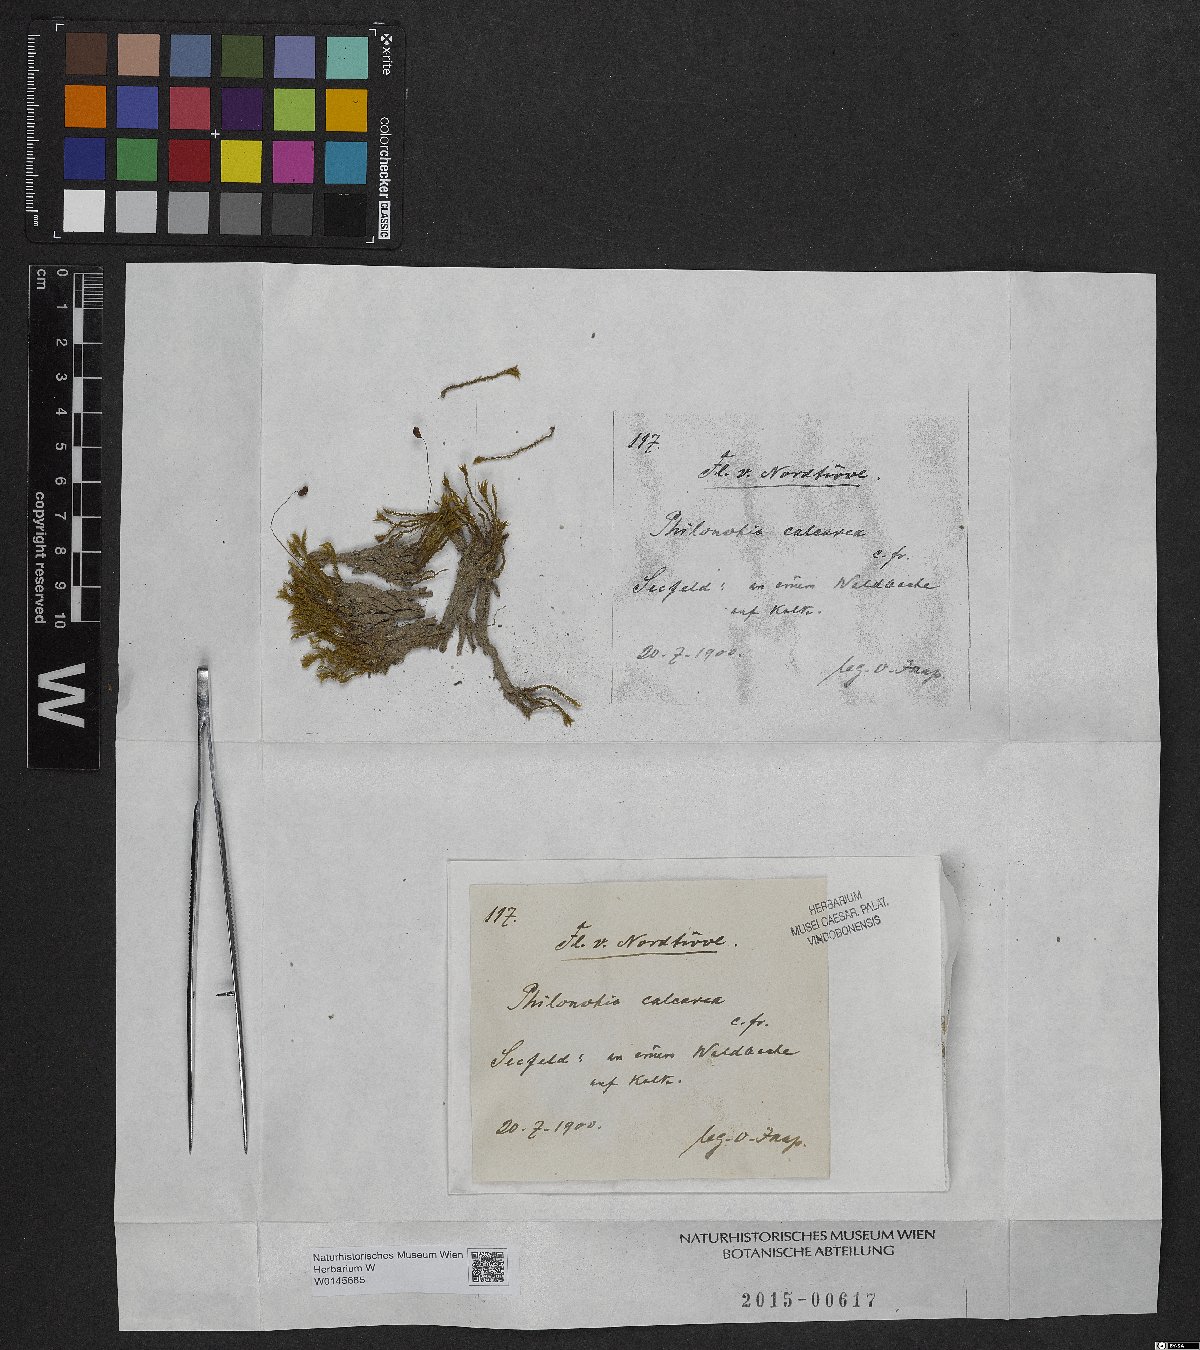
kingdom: Plantae
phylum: Bryophyta
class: Bryopsida
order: Bartramiales
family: Bartramiaceae
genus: Philonotis
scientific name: Philonotis calcarea
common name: Thick-nerved apple-moss
